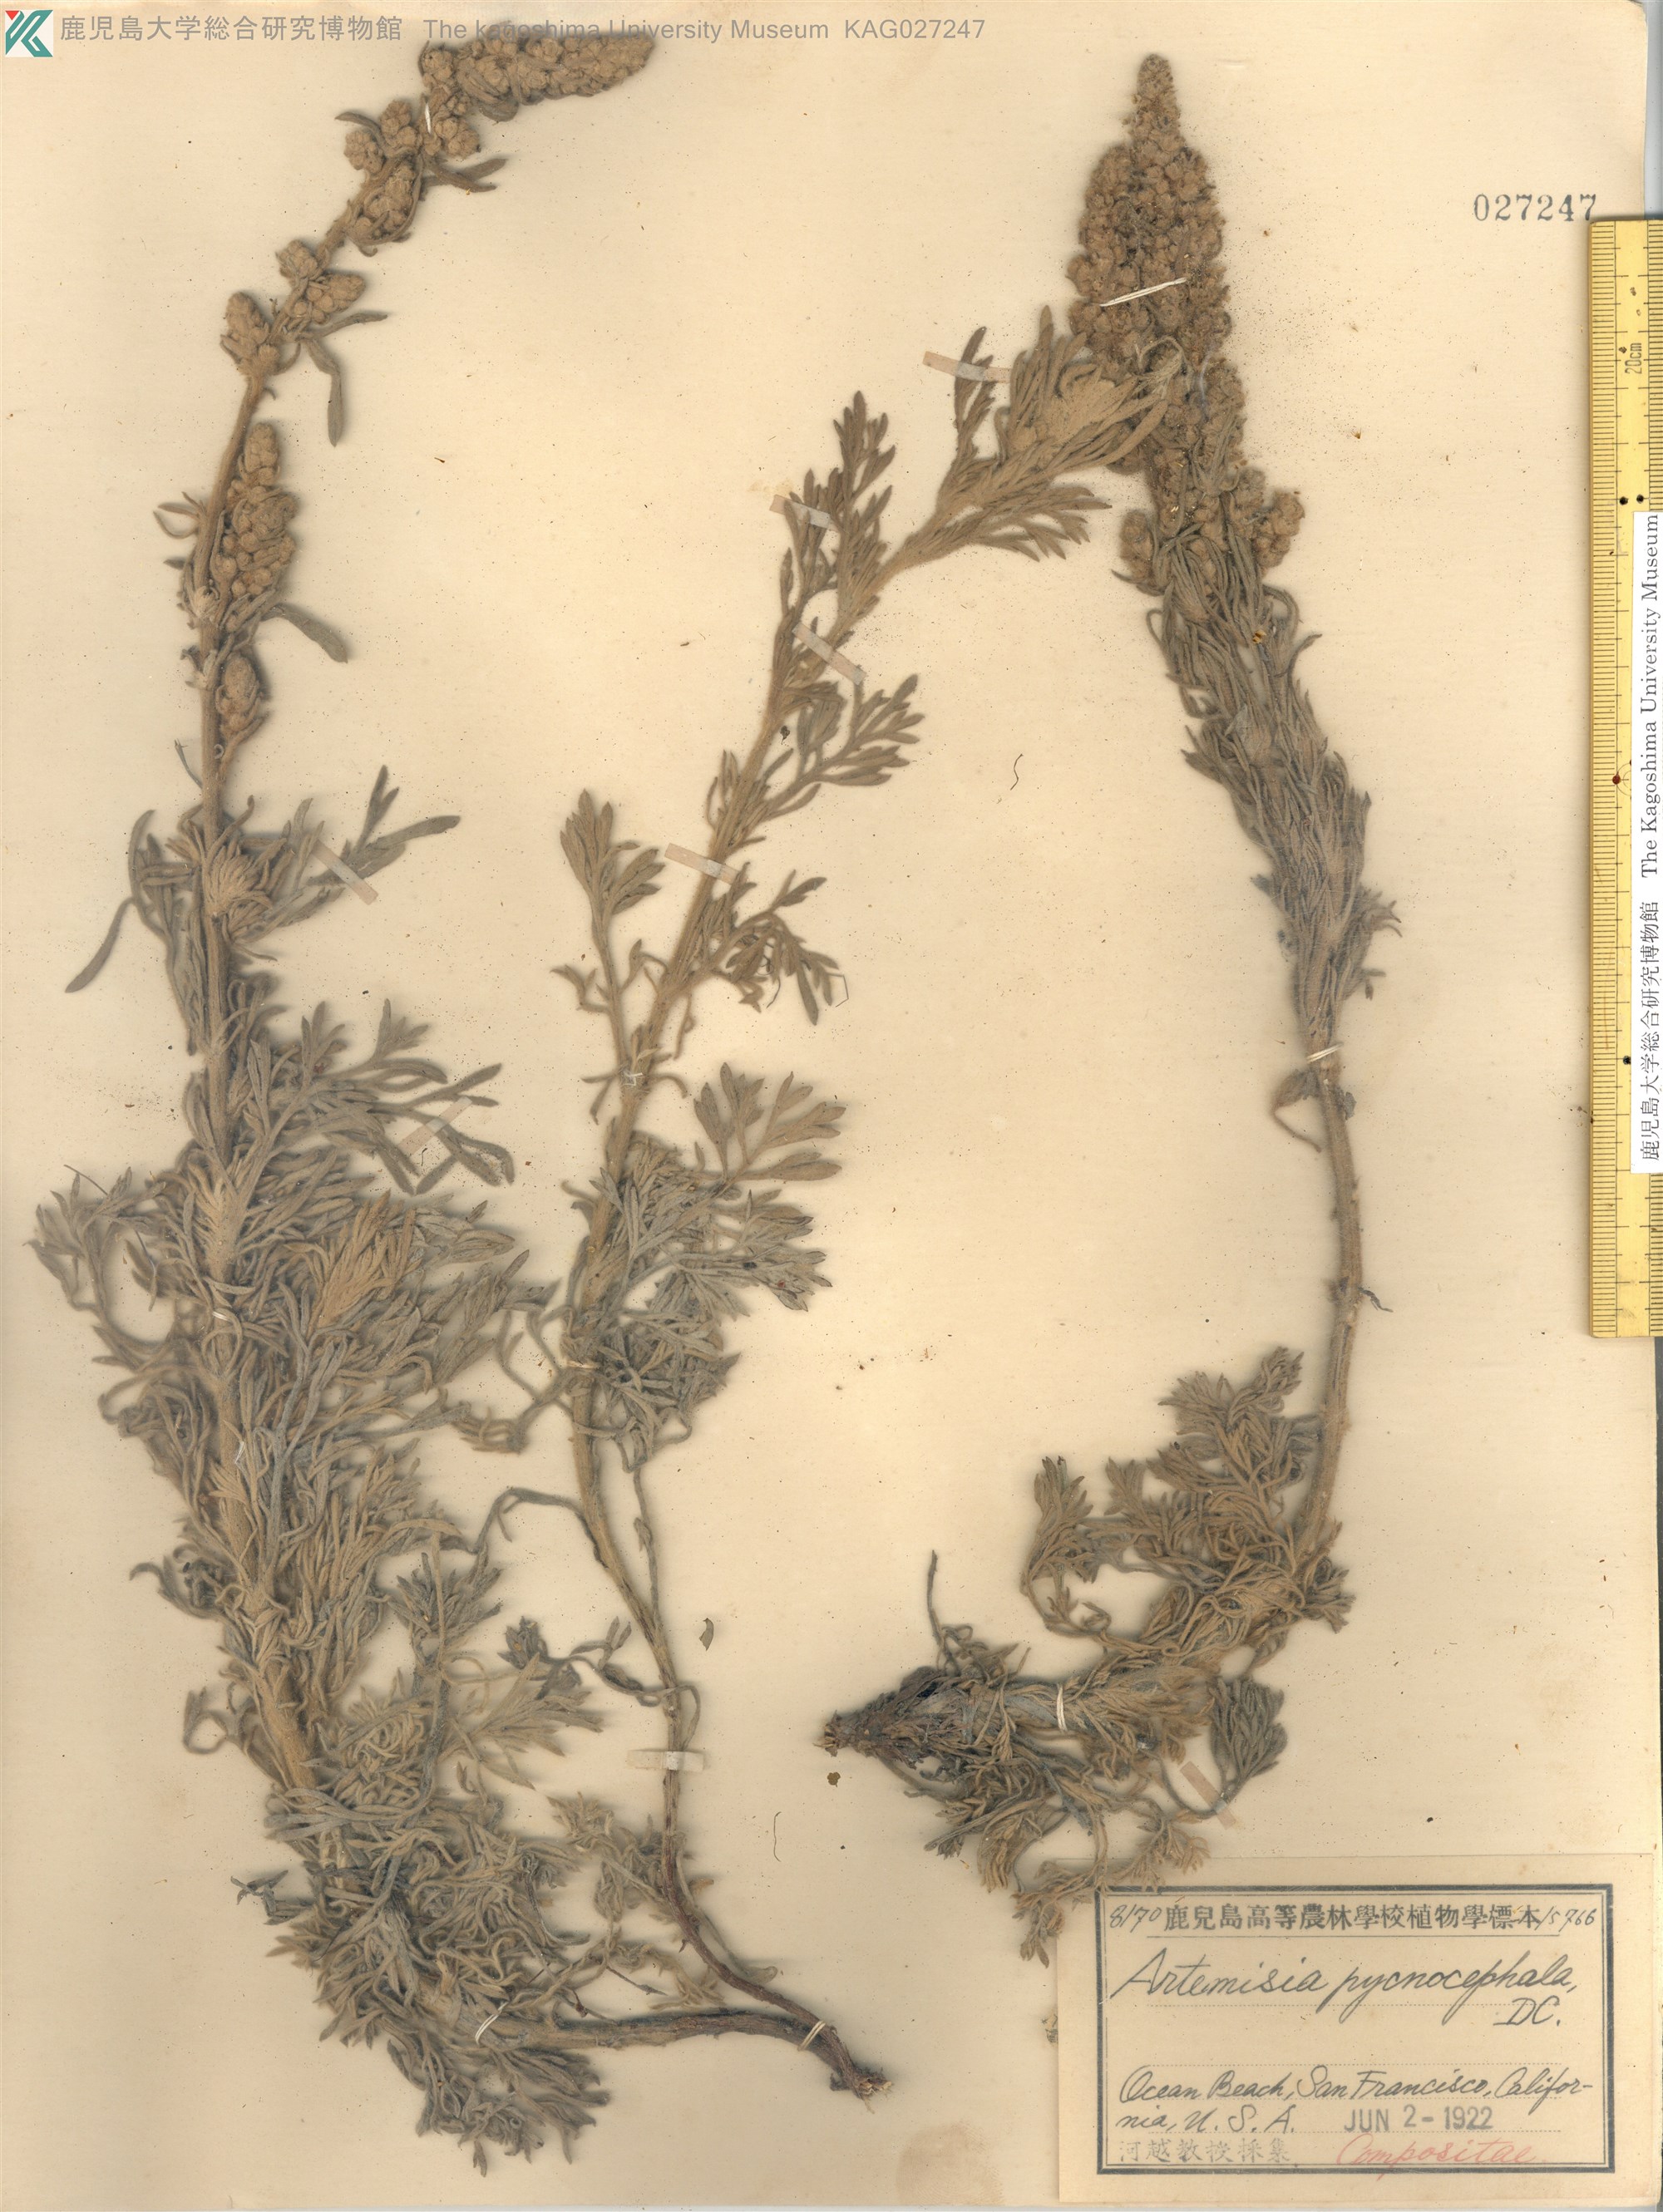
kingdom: Plantae
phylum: Tracheophyta
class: Magnoliopsida
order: Asterales
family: Asteraceae
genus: Artemisia
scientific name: Artemisia pycnocephala
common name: Coastal sagewort
